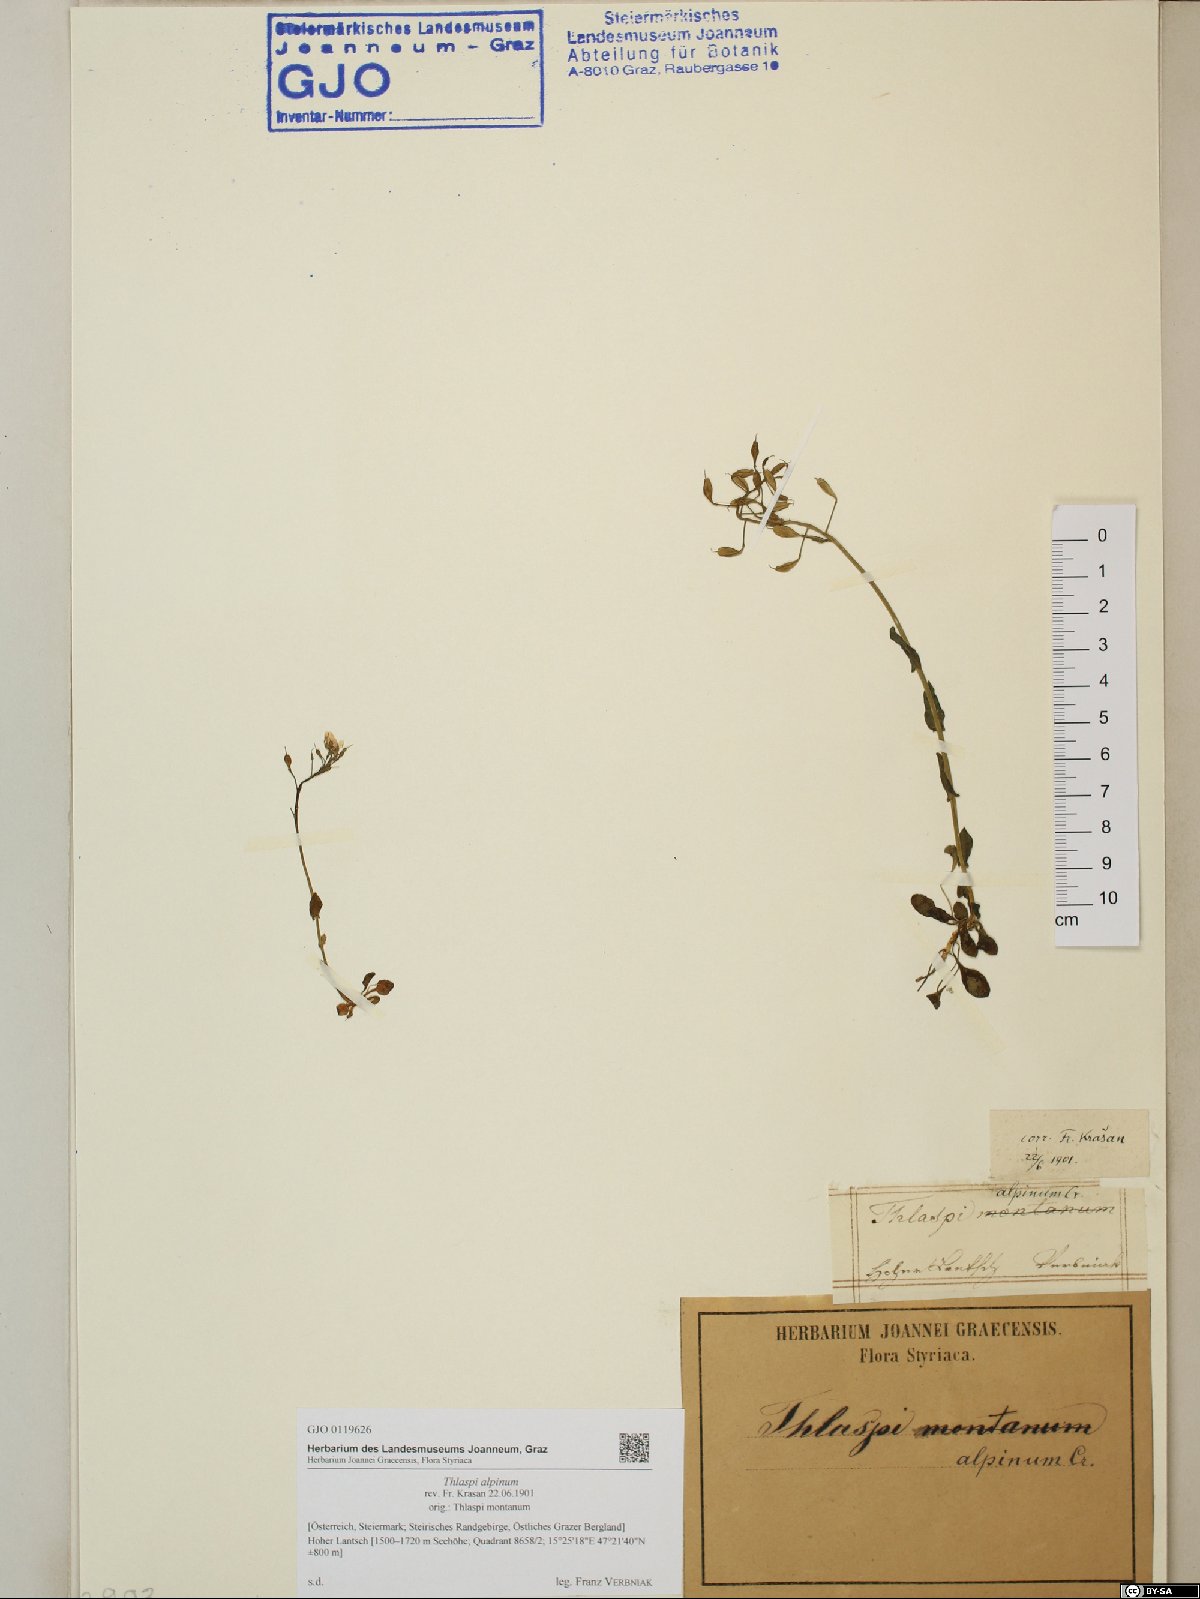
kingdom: Plantae
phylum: Tracheophyta
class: Magnoliopsida
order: Brassicales
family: Brassicaceae
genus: Noccaea
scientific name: Noccaea alpestris
